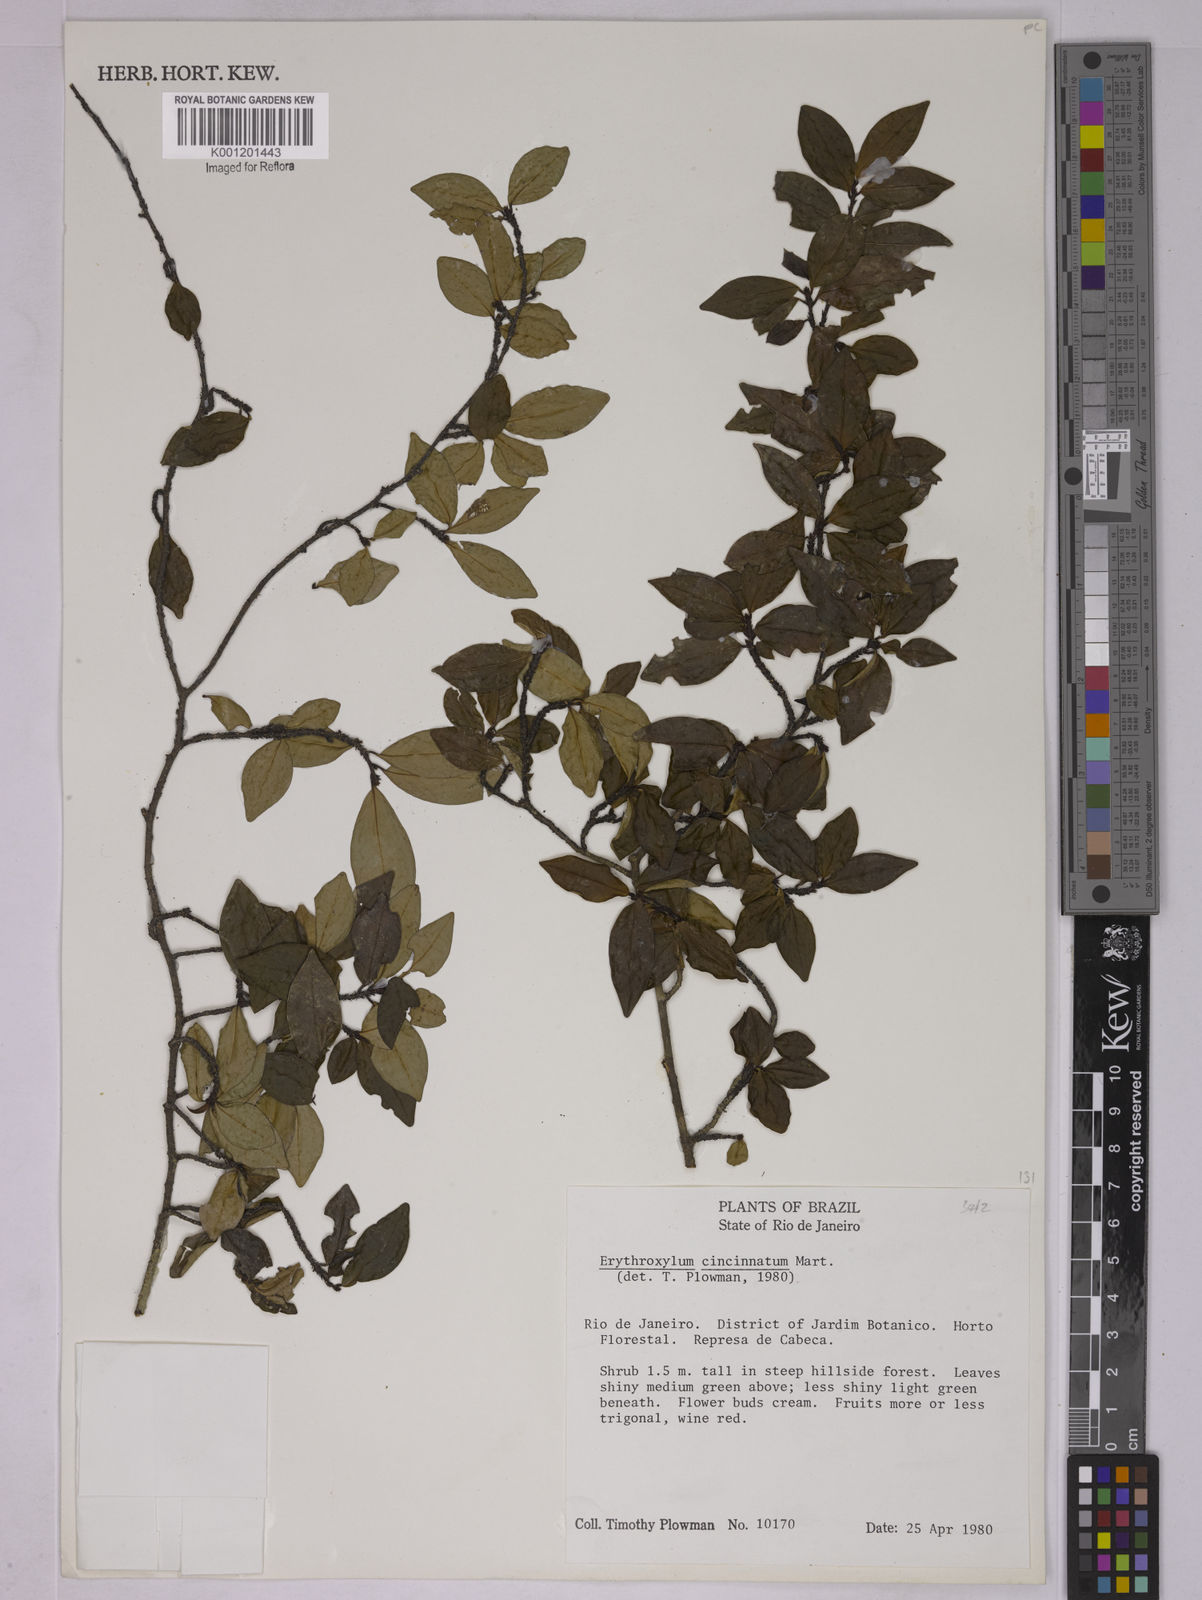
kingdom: Plantae
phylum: Tracheophyta
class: Magnoliopsida
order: Malpighiales
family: Erythroxylaceae
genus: Erythroxylum
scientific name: Erythroxylum cincinnatum
